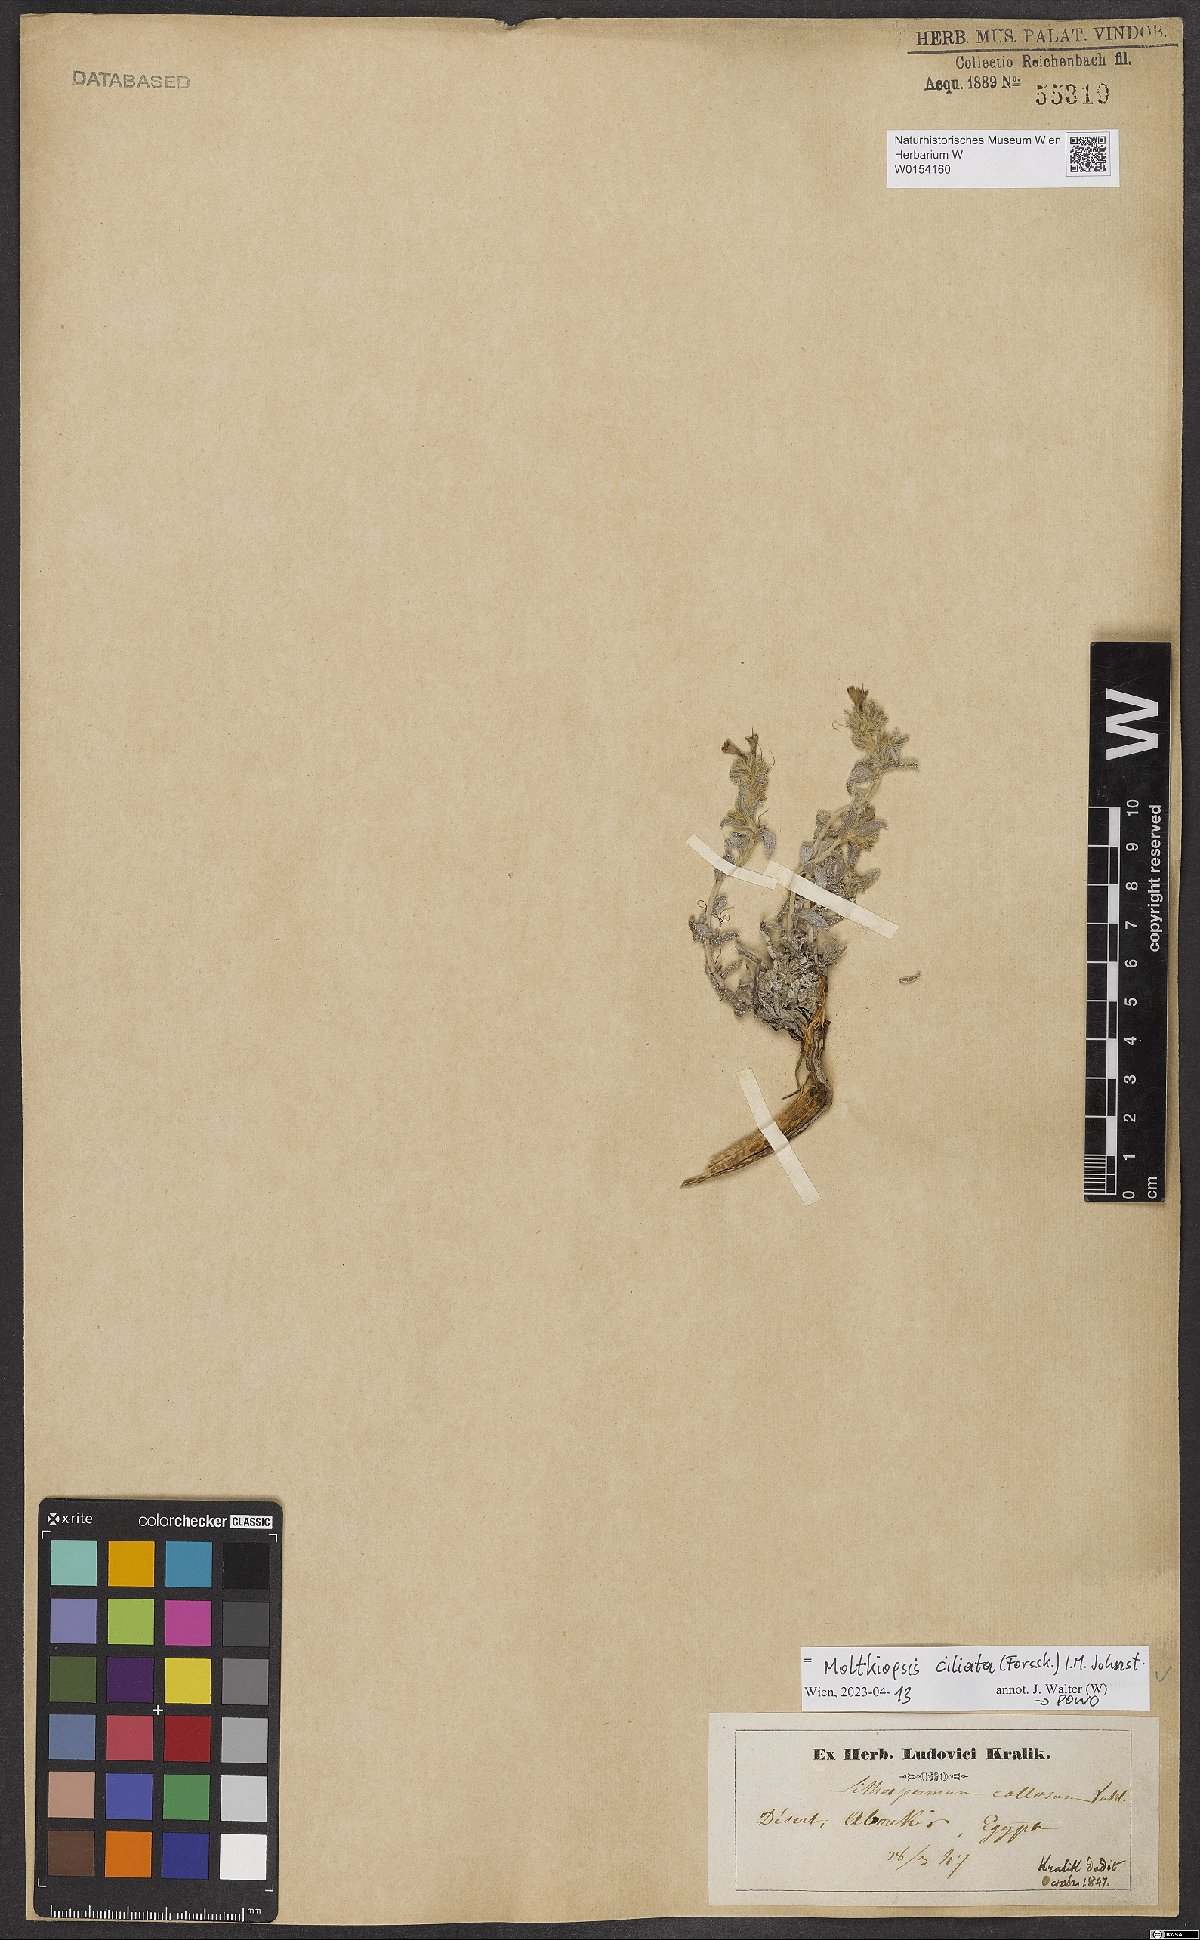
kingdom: Plantae
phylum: Tracheophyta
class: Magnoliopsida
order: Boraginales
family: Boraginaceae
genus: Moltkiopsis
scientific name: Moltkiopsis ciliata
